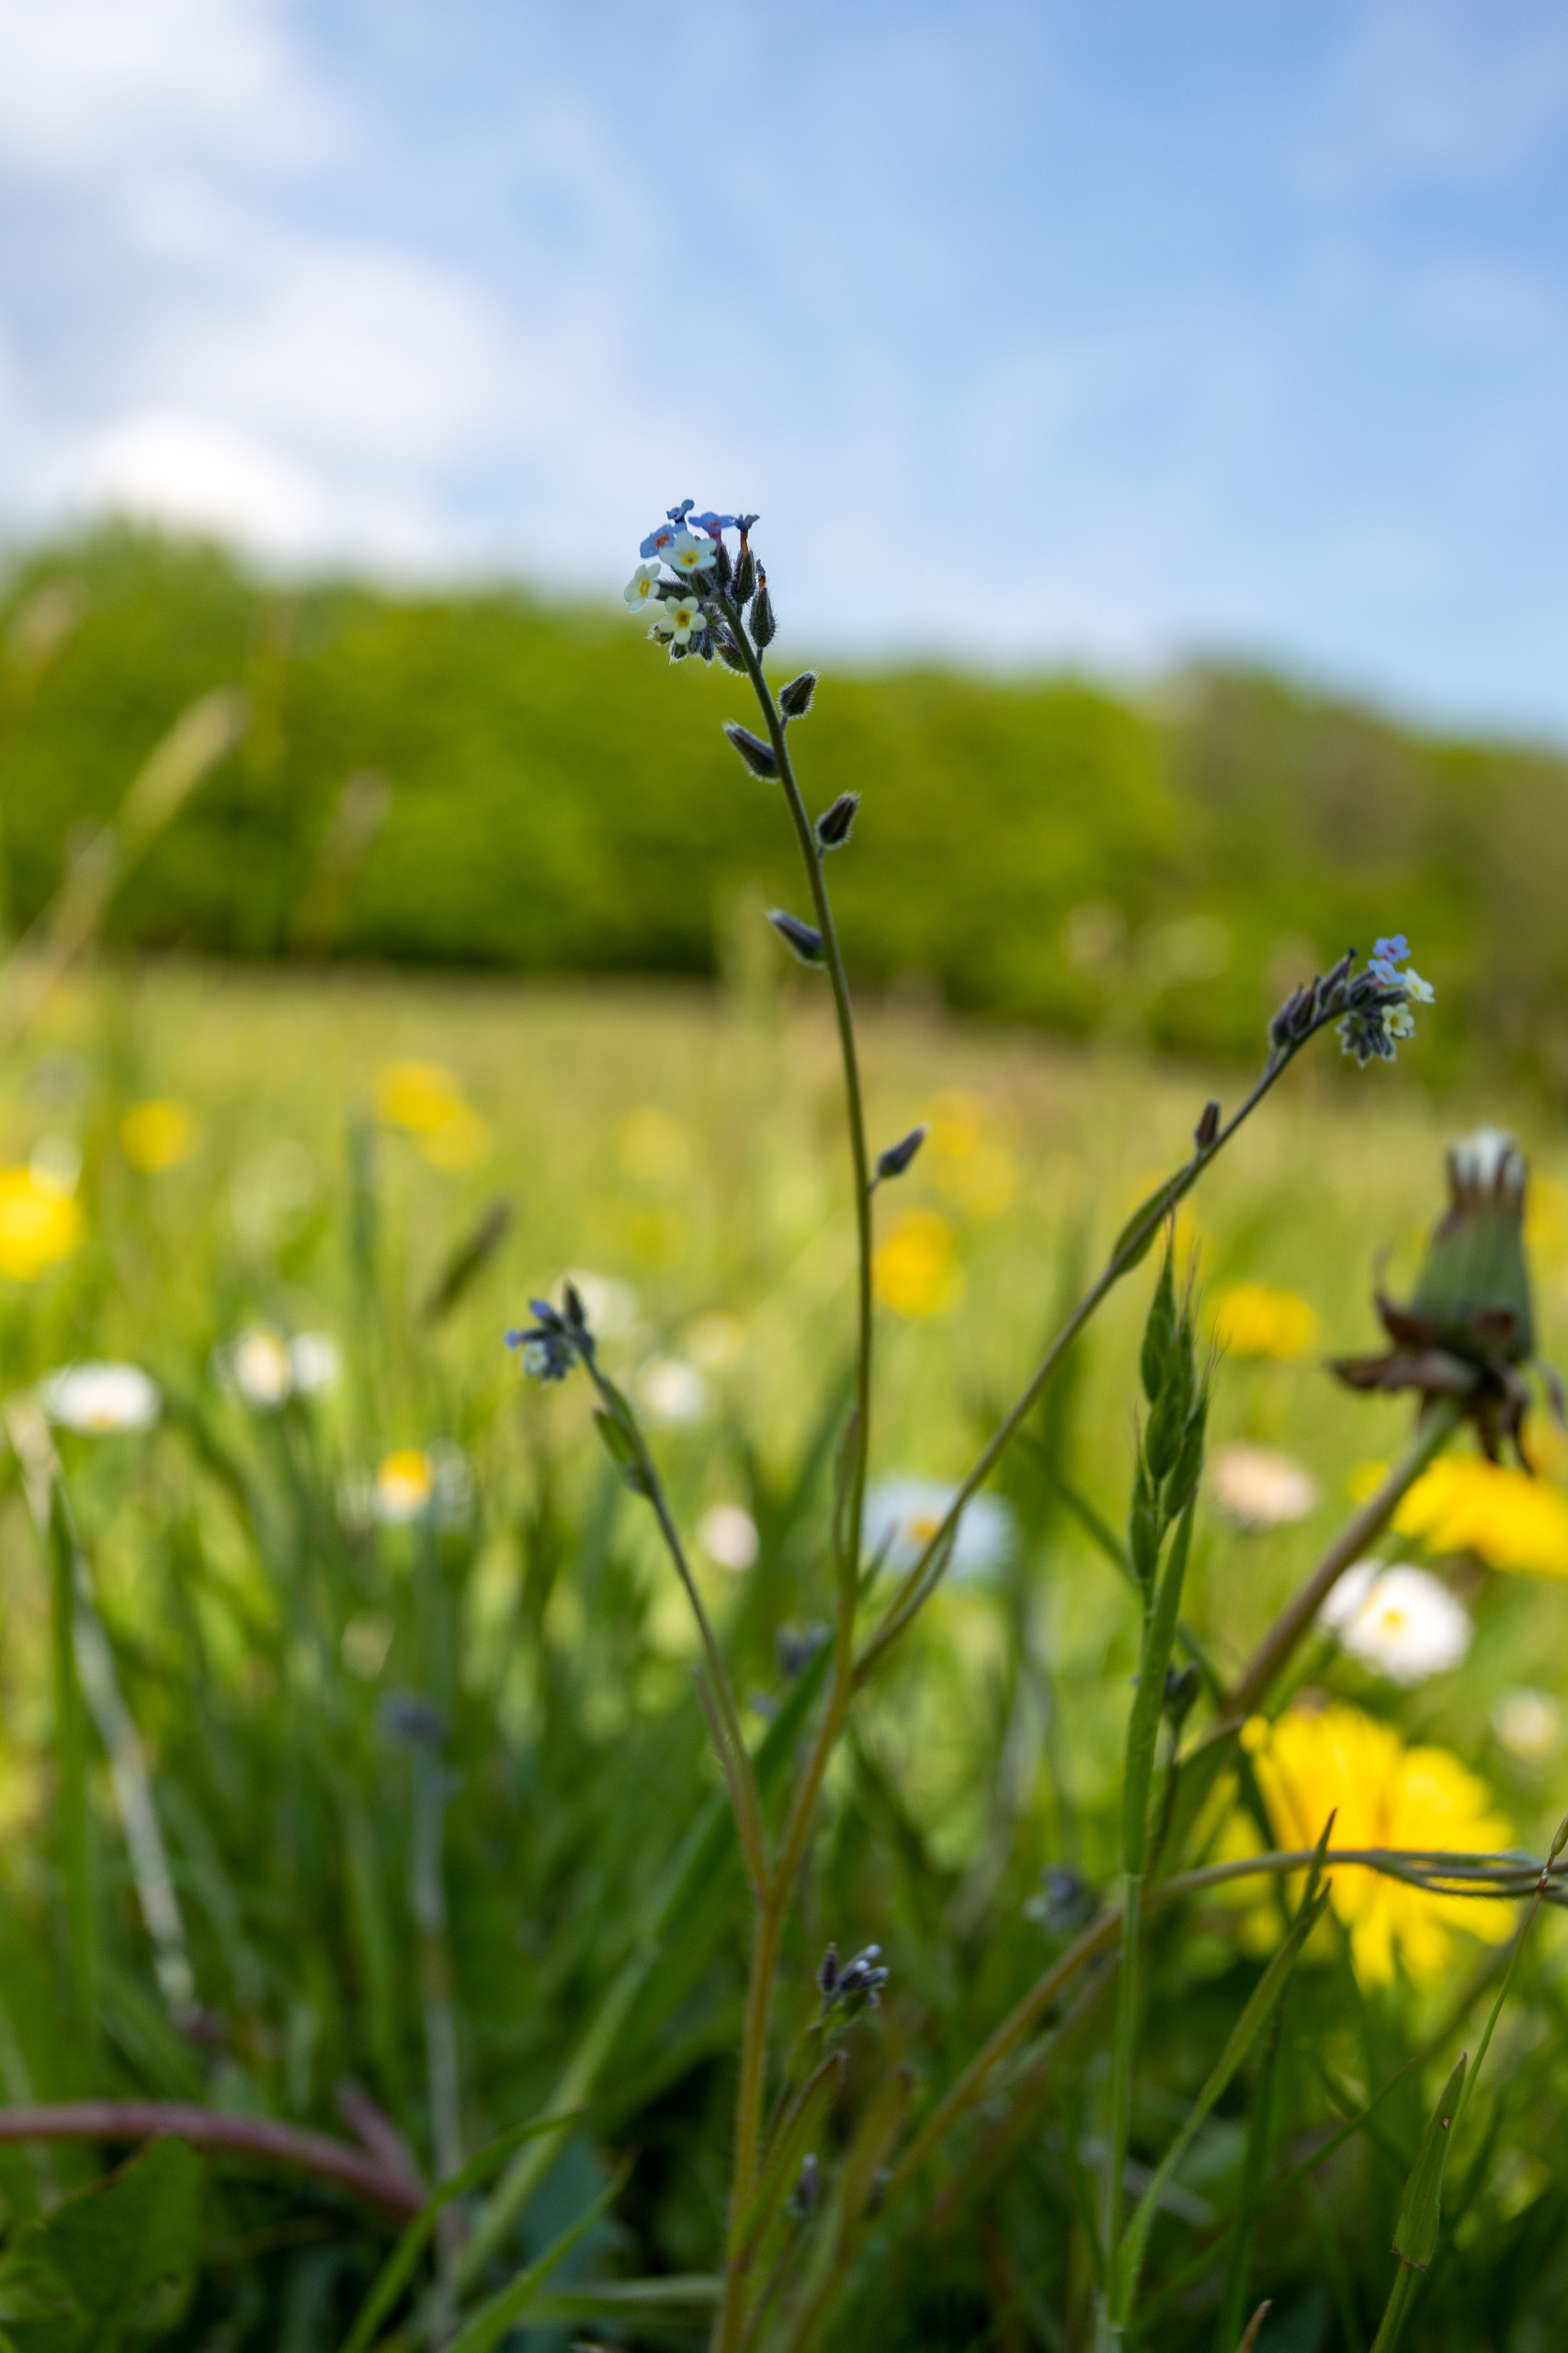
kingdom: Plantae
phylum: Tracheophyta
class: Magnoliopsida
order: Boraginales
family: Boraginaceae
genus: Myosotis
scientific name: Myosotis discolor
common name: Forskelligfarvet forglemmigej
